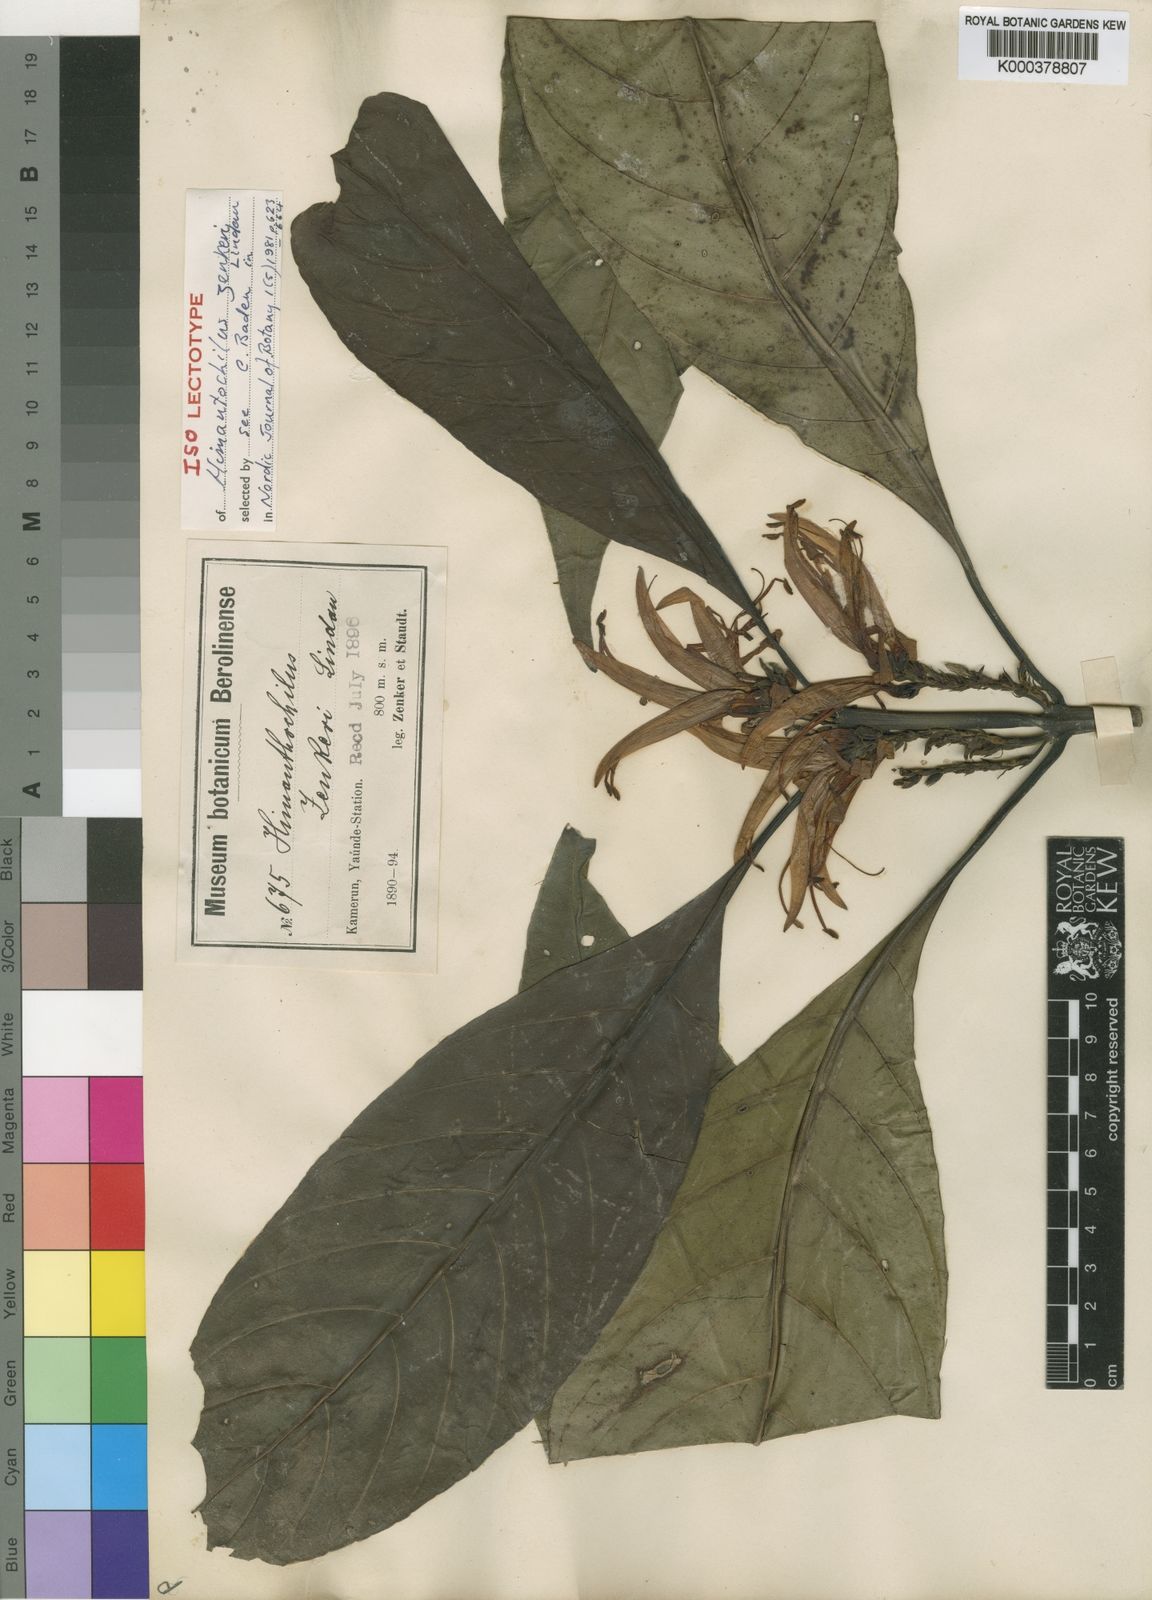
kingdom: Plantae
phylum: Tracheophyta
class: Magnoliopsida
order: Lamiales
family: Acanthaceae
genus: Anisotes
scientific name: Anisotes zenkeri
